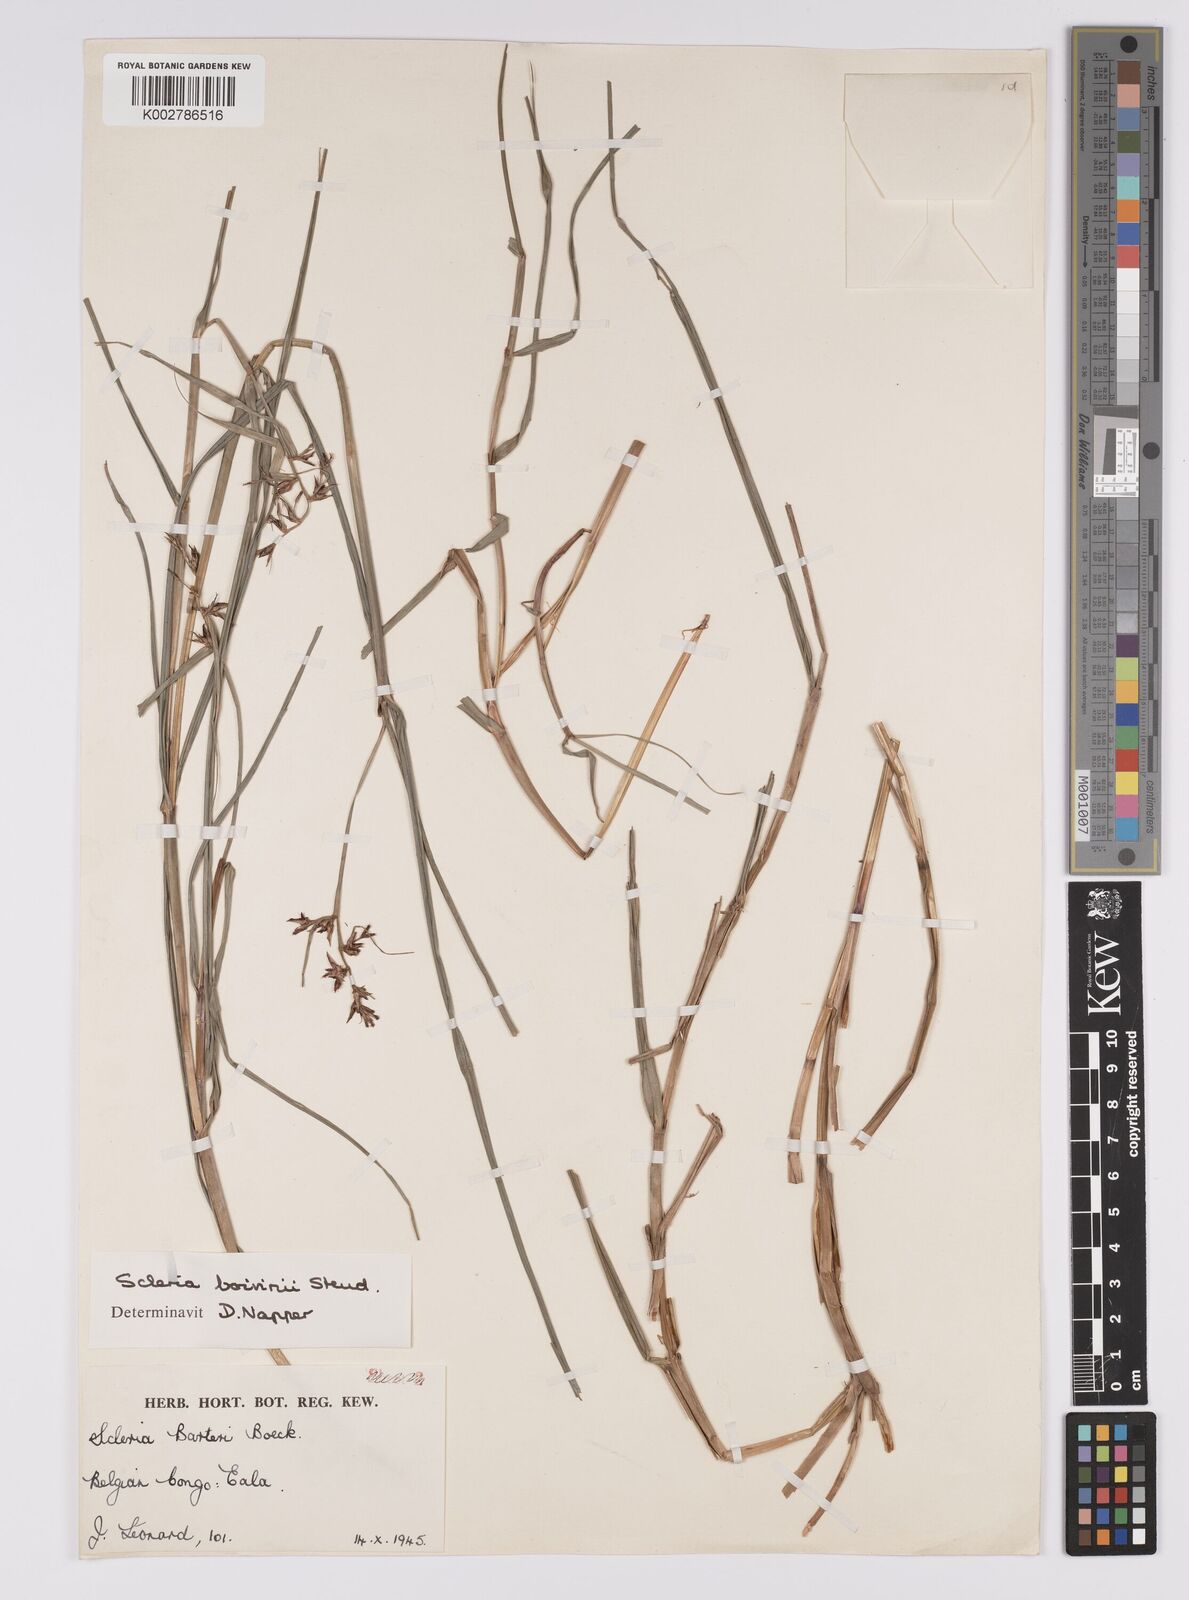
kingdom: Plantae
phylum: Tracheophyta
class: Liliopsida
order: Poales
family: Cyperaceae
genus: Scleria
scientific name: Scleria boivinii
